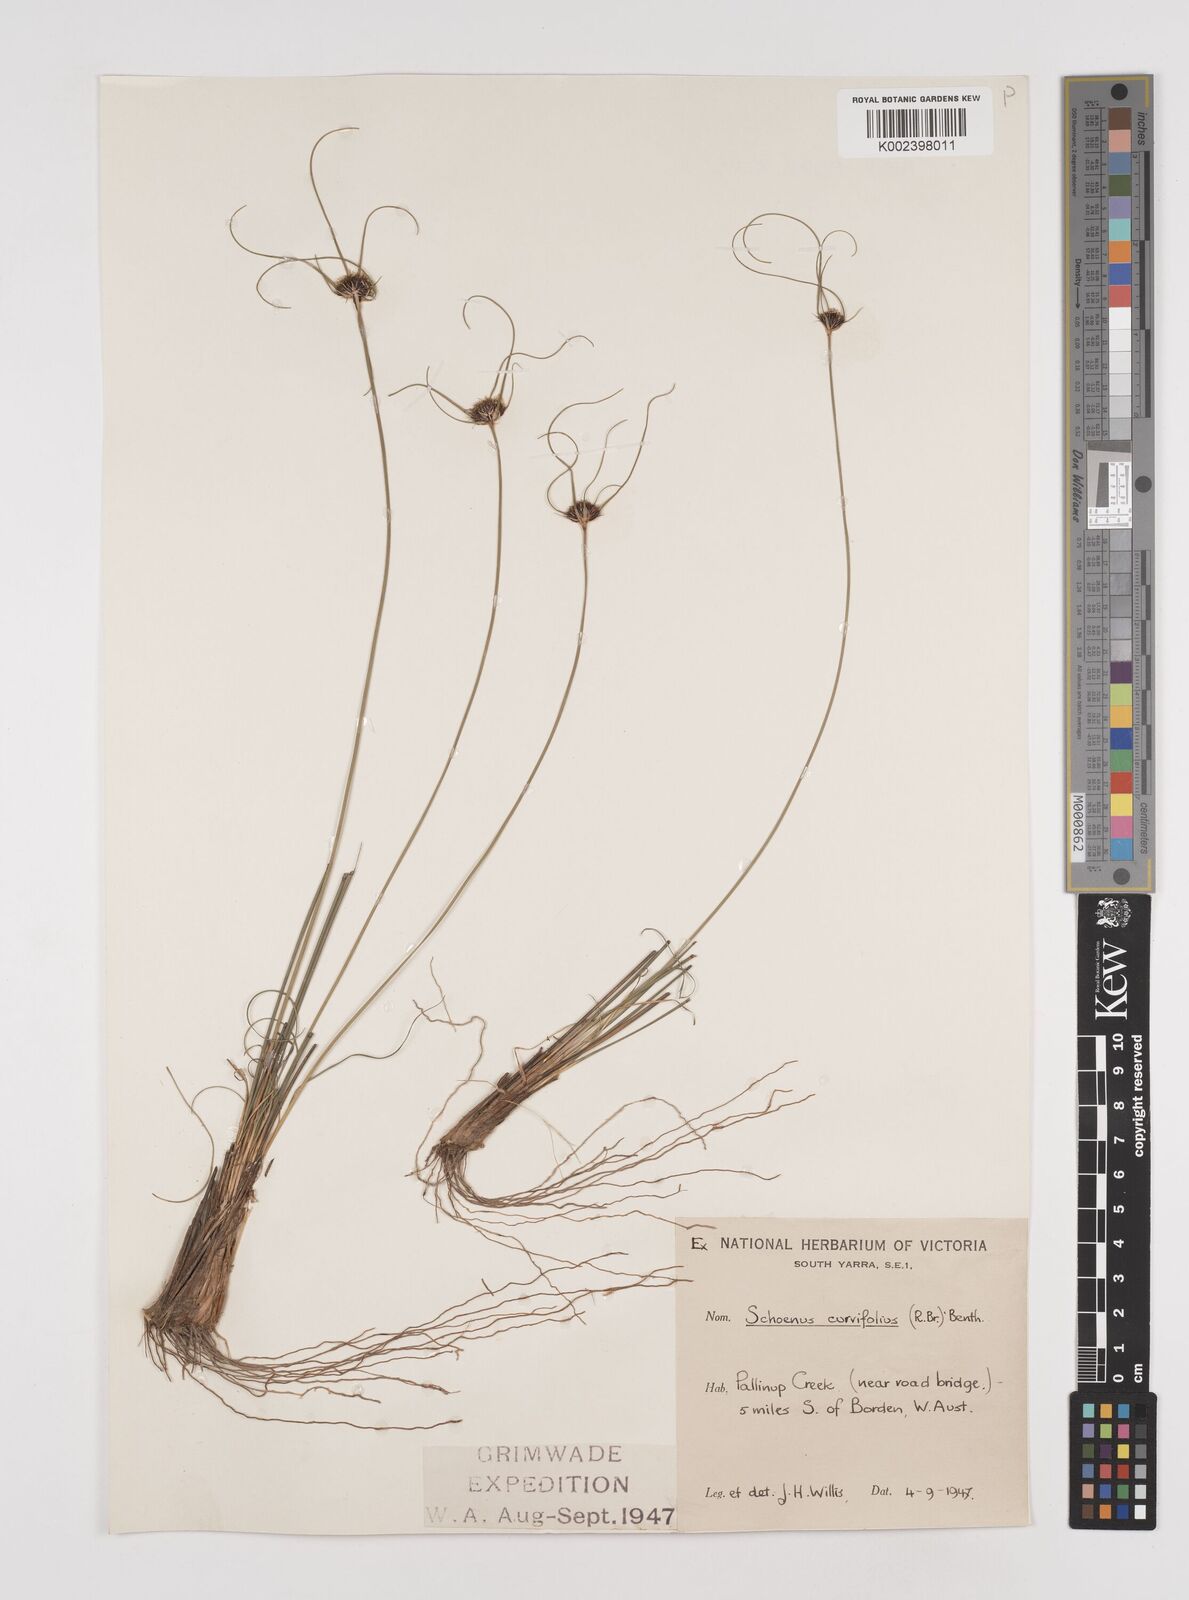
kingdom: Plantae
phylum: Tracheophyta
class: Liliopsida
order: Poales
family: Cyperaceae
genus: Schoenus
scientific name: Schoenus curvifolius
